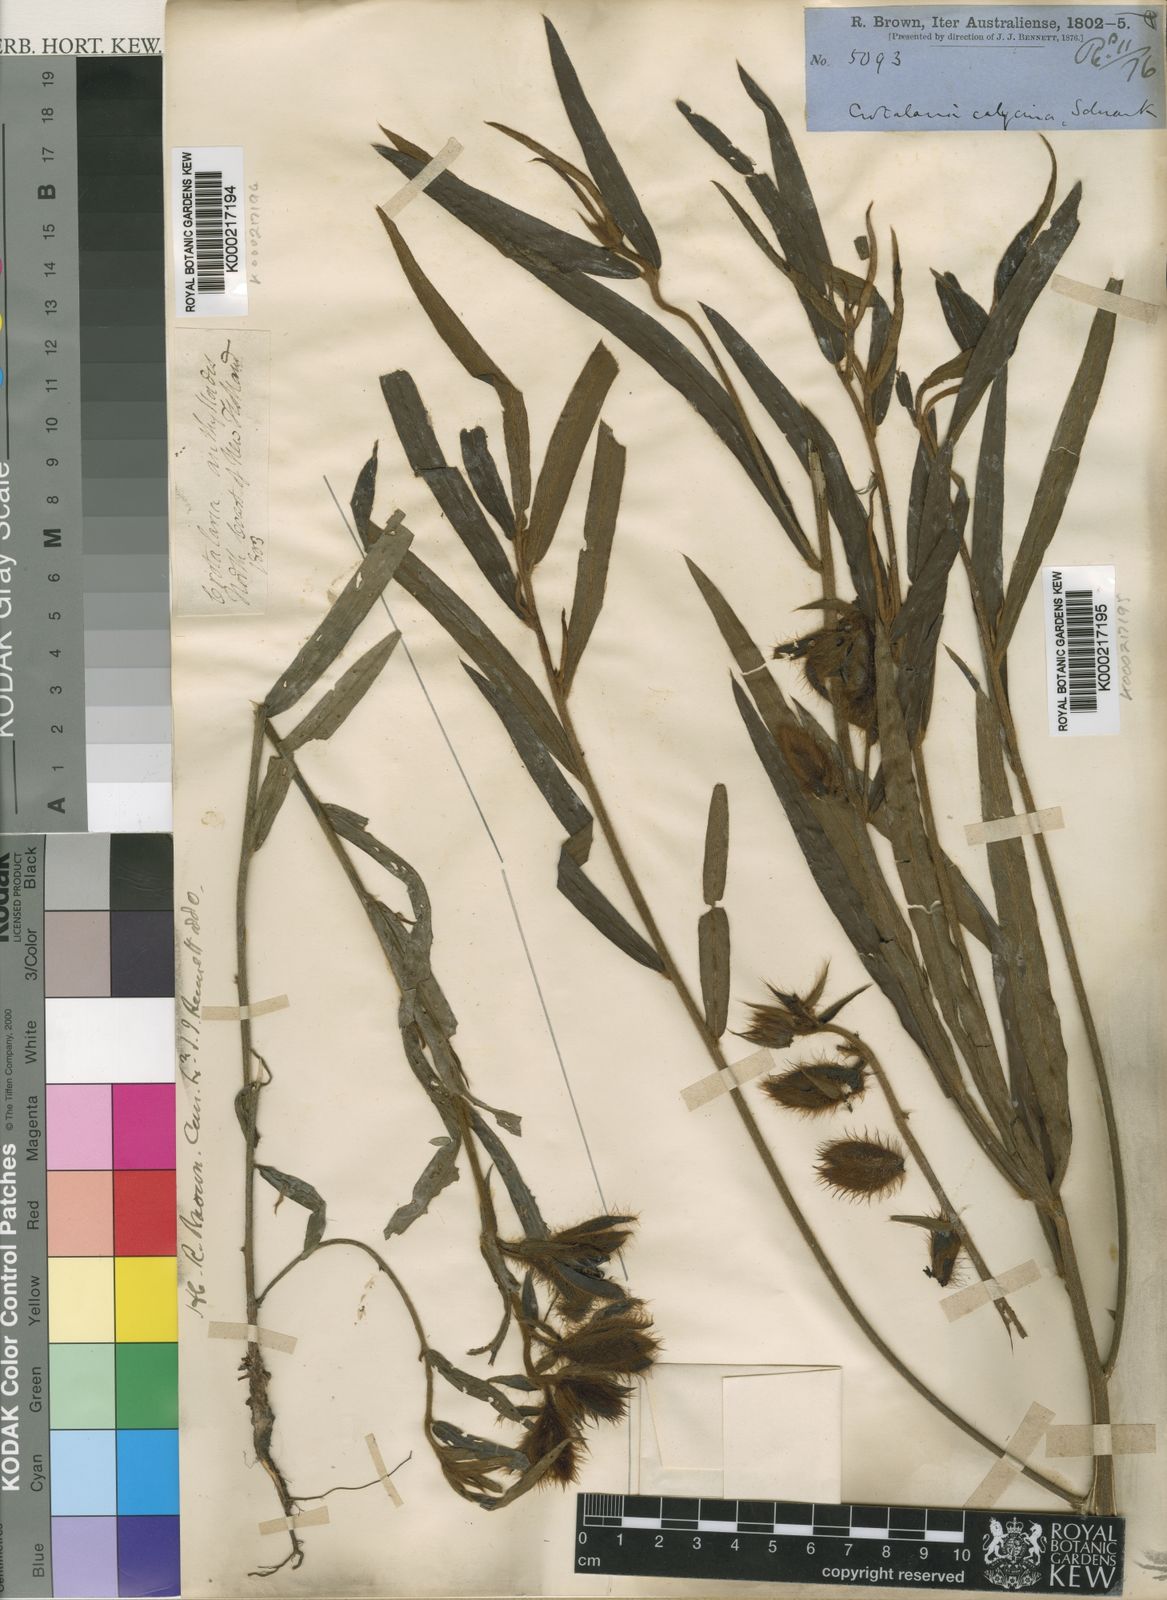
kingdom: Plantae
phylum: Tracheophyta
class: Magnoliopsida
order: Fabales
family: Fabaceae
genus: Crotalaria
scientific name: Crotalaria sessiliflora
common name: Rattlebox
